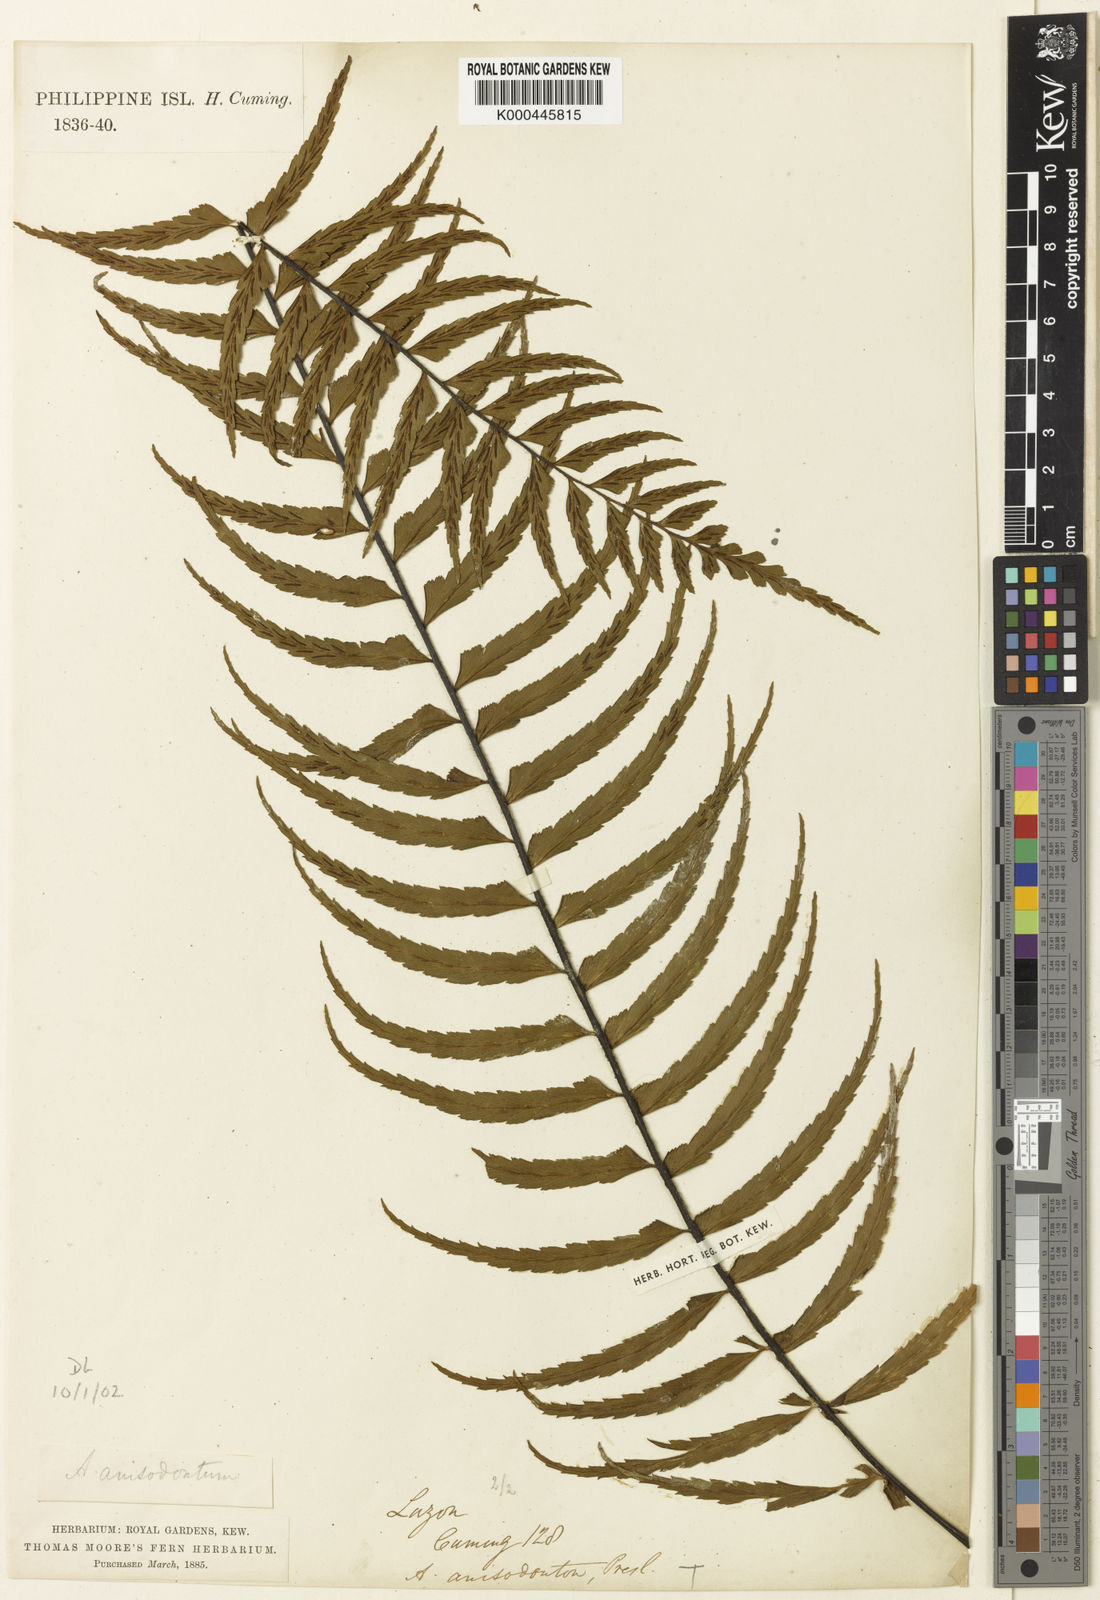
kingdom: Plantae
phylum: Tracheophyta
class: Polypodiopsida
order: Polypodiales
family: Aspleniaceae
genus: Asplenium
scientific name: Asplenium longissimum
